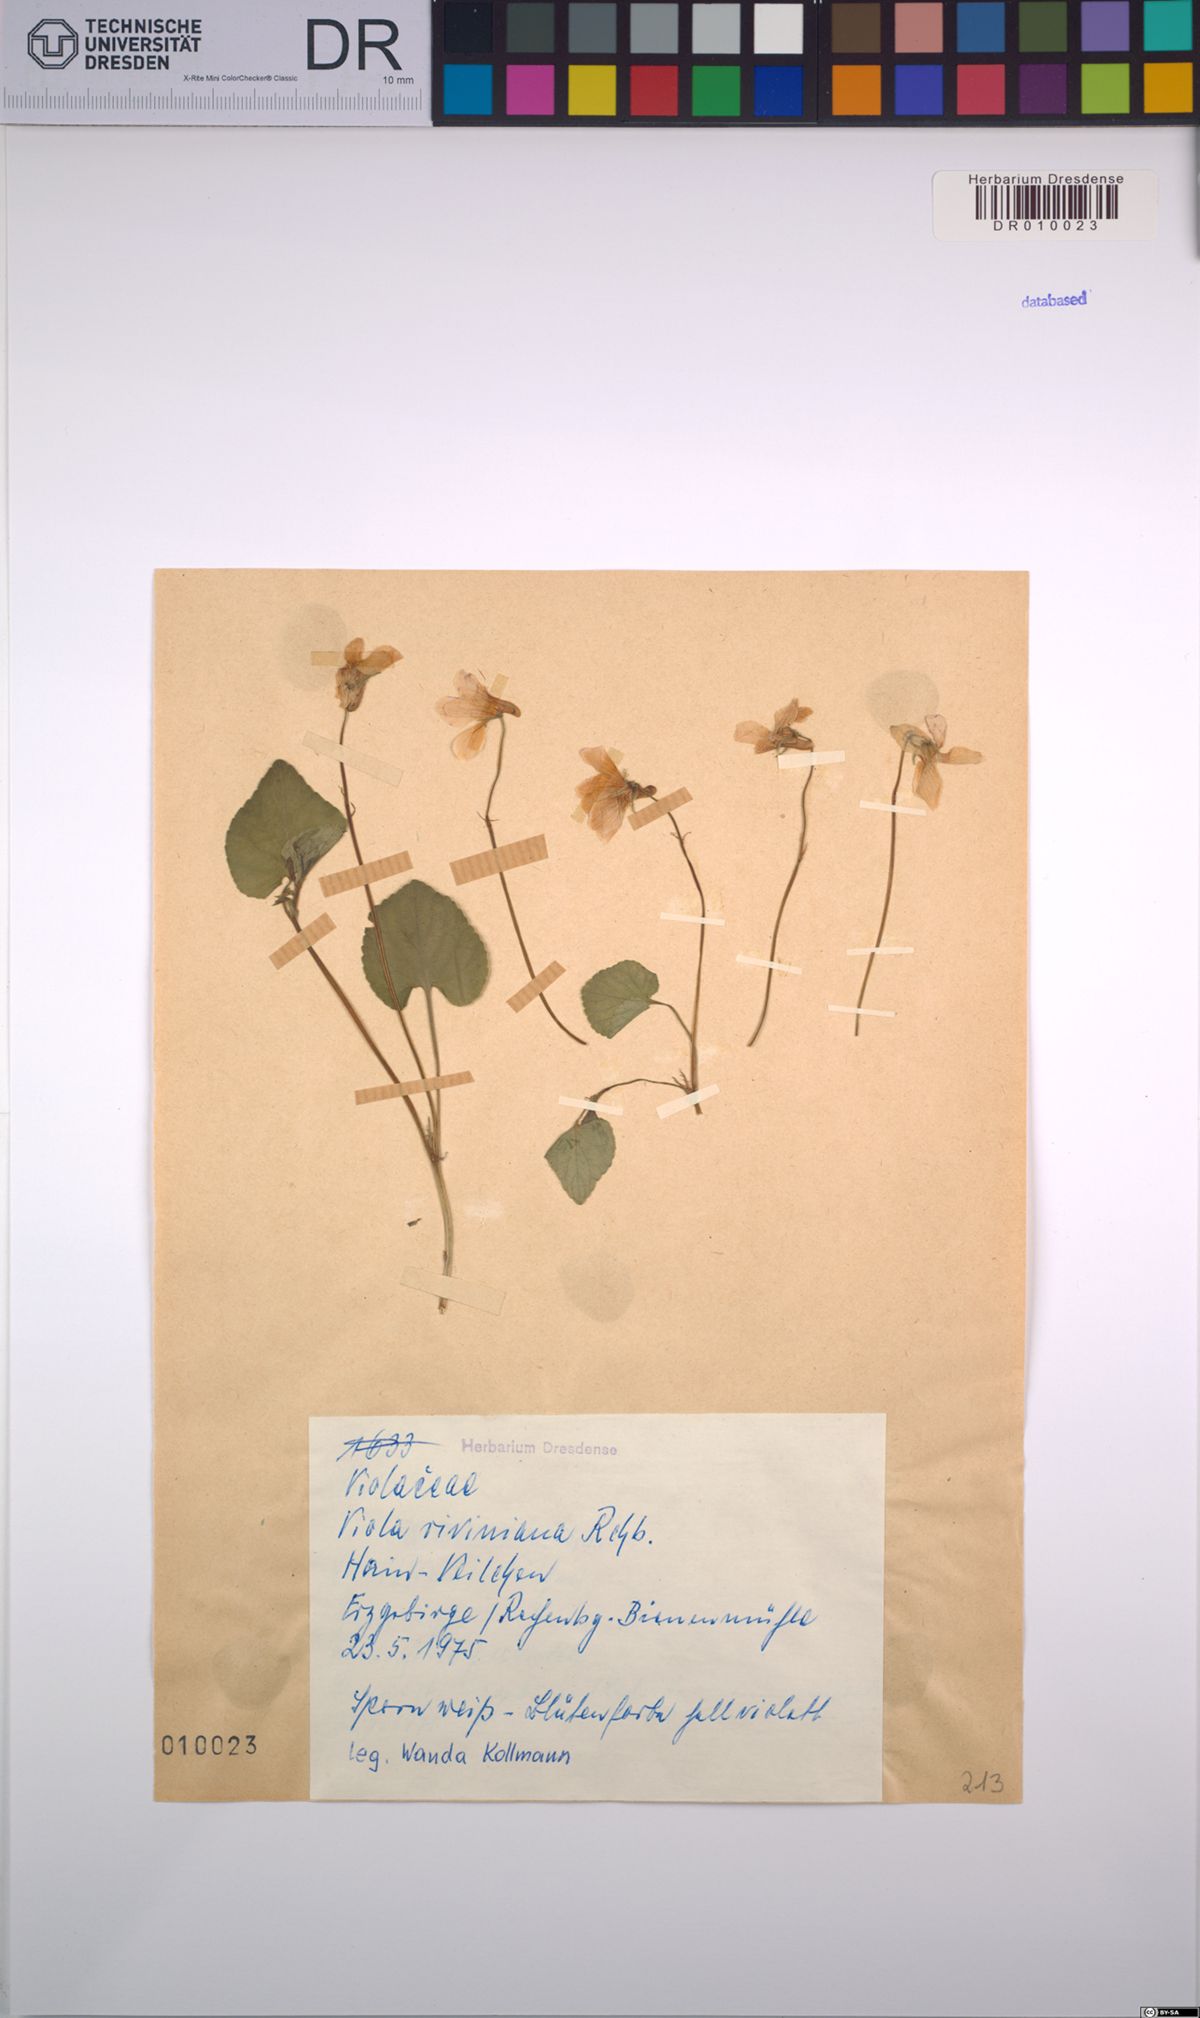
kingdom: Plantae
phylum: Tracheophyta
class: Magnoliopsida
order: Malpighiales
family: Violaceae
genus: Viola
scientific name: Viola riviniana
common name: Common dog-violet
